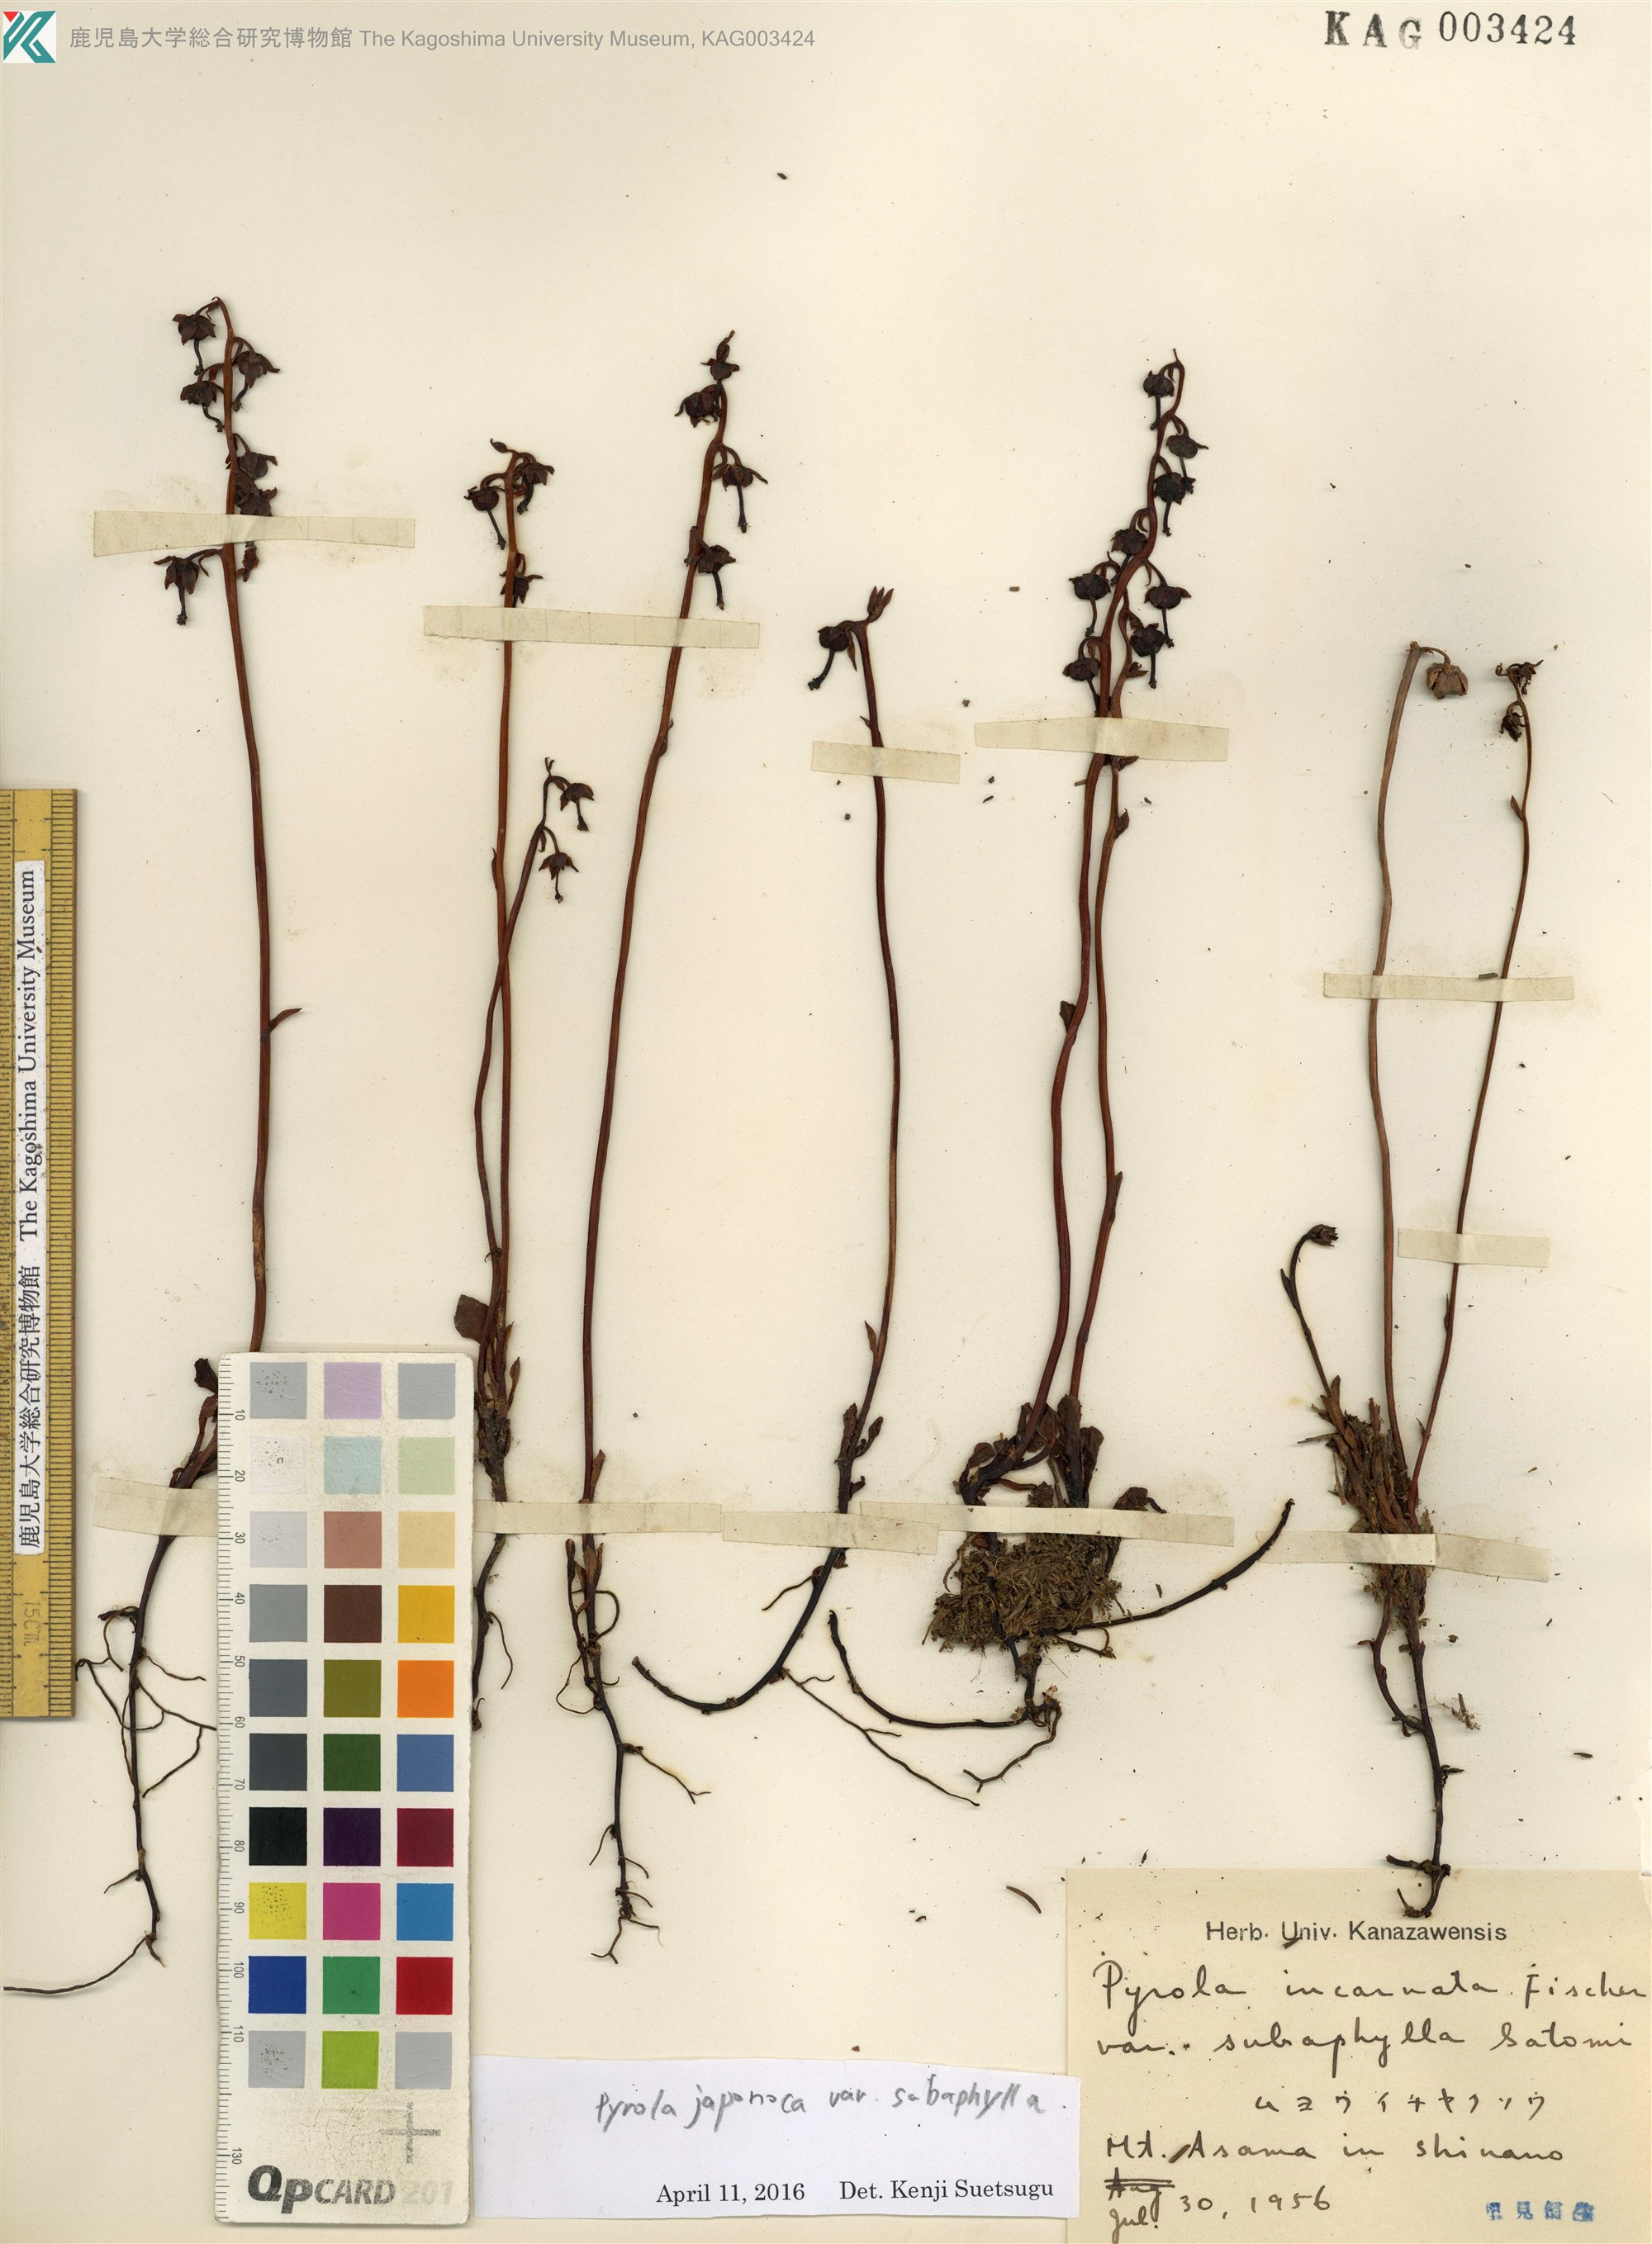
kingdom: Plantae
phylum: Tracheophyta
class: Magnoliopsida
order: Ericales
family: Ericaceae
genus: Pyrola
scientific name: Pyrola japonica
